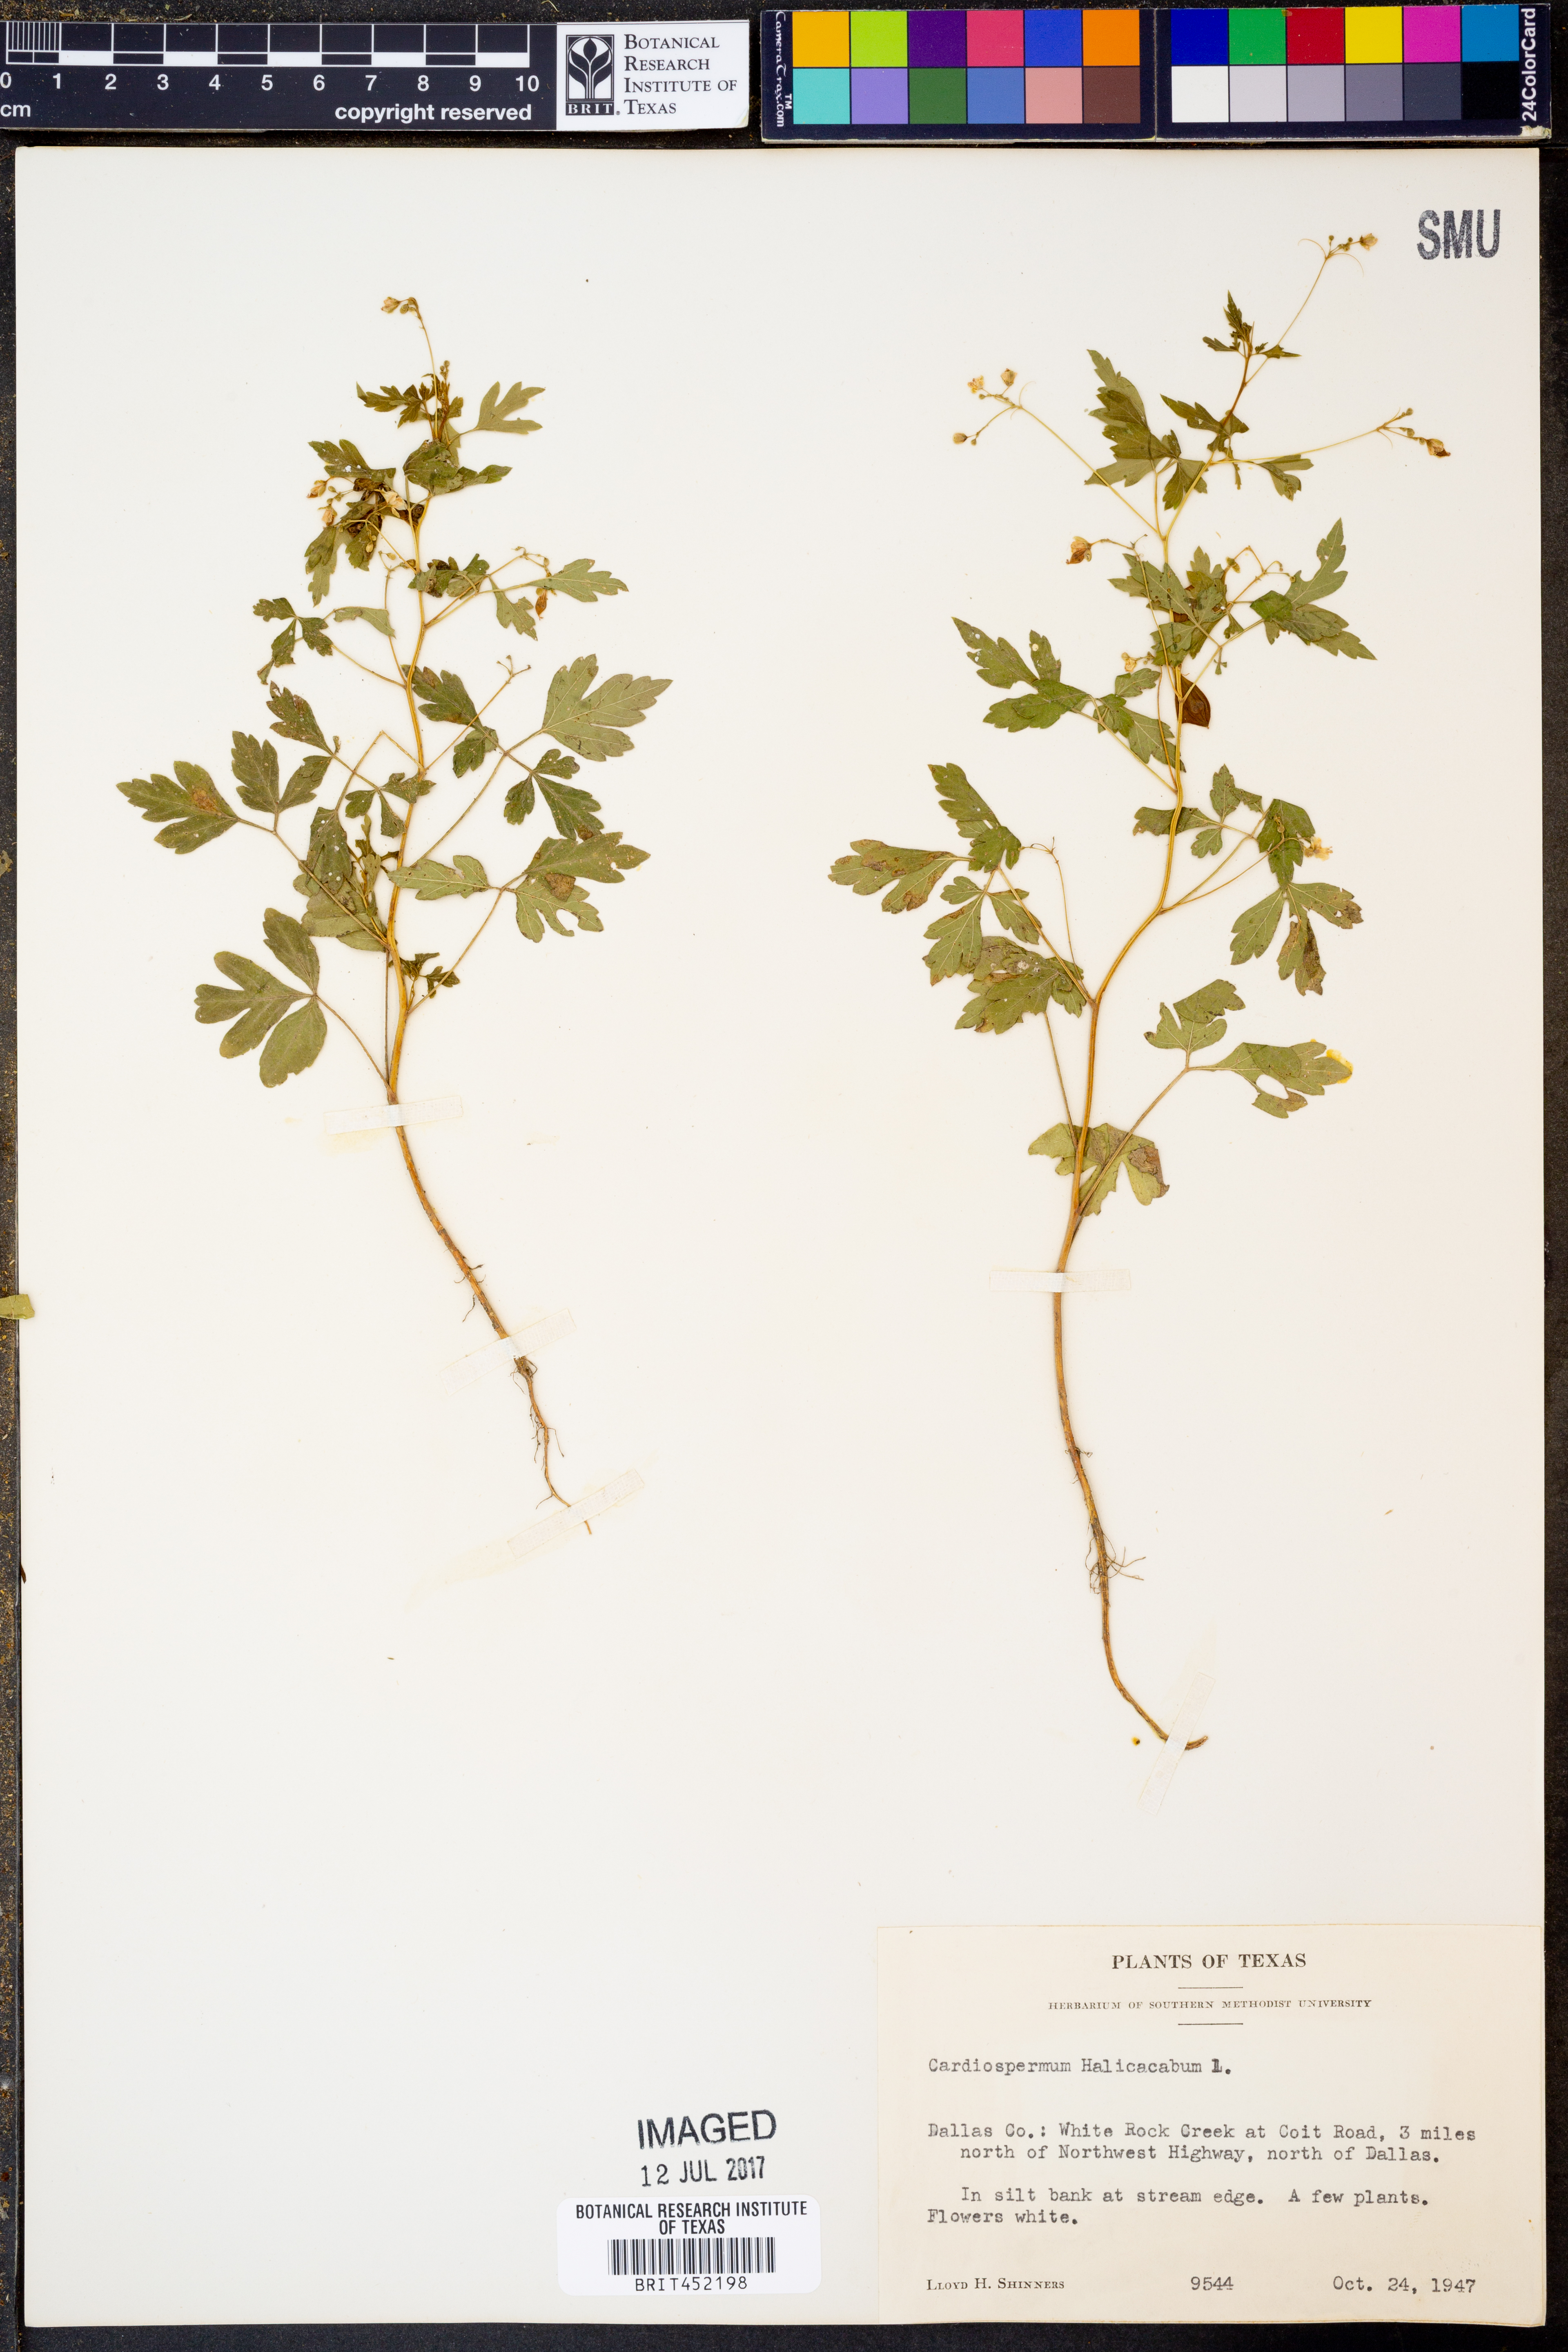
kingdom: Plantae
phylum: Tracheophyta
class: Magnoliopsida
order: Sapindales
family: Sapindaceae
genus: Cardiospermum
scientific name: Cardiospermum halicacabum
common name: Balloon vine
